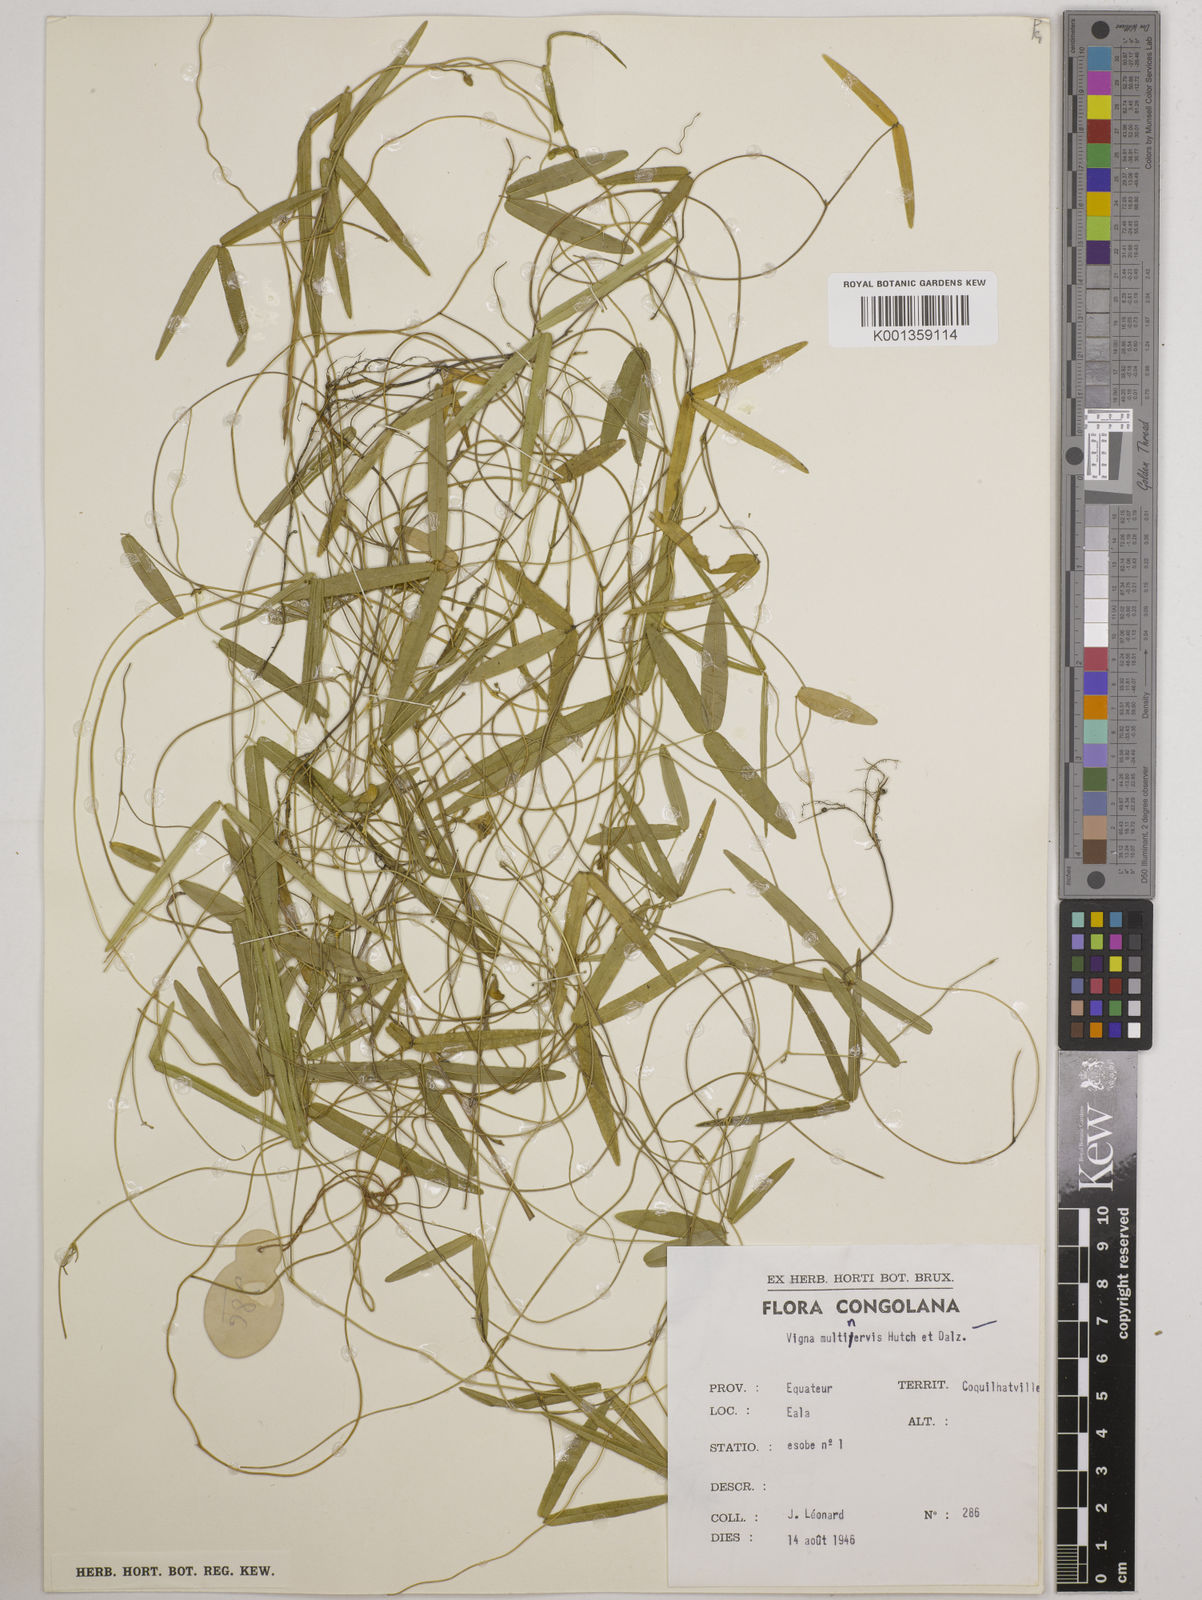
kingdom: Plantae
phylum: Tracheophyta
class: Magnoliopsida
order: Fabales
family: Fabaceae
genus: Vigna
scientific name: Vigna multinervis
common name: Fula-pulaar
